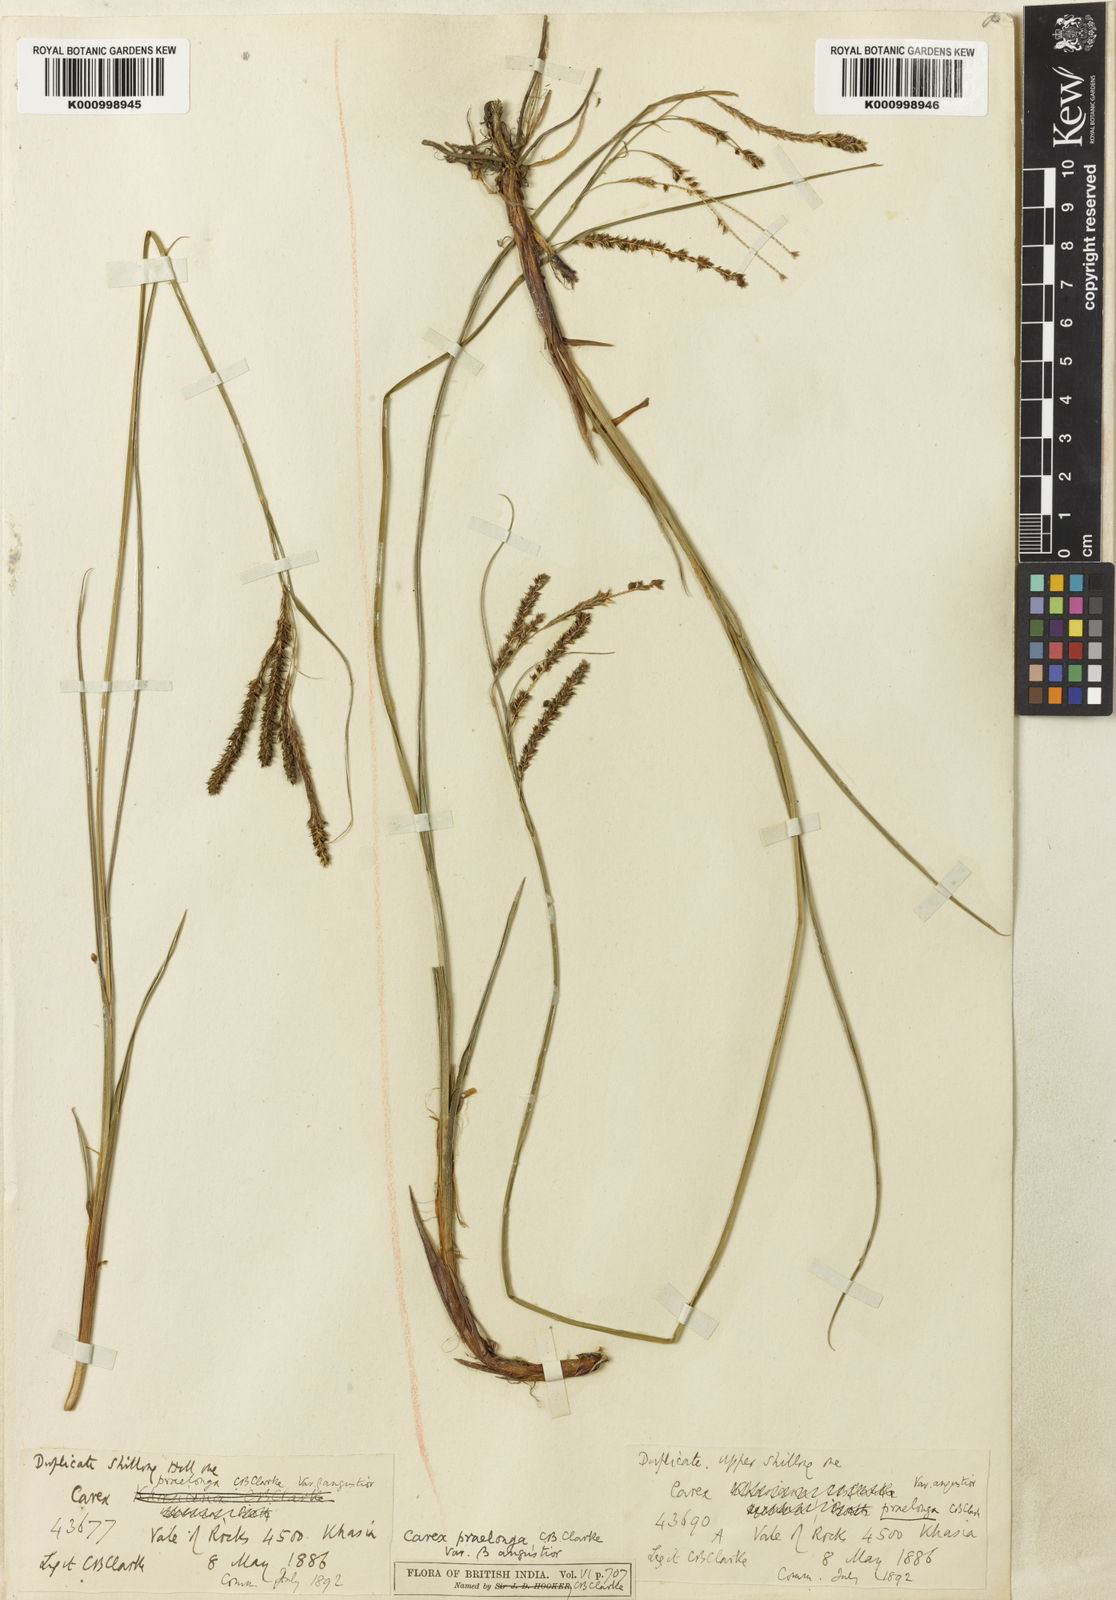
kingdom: Plantae
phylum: Tracheophyta
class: Liliopsida
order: Poales
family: Cyperaceae
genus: Carex
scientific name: Carex praelonga
